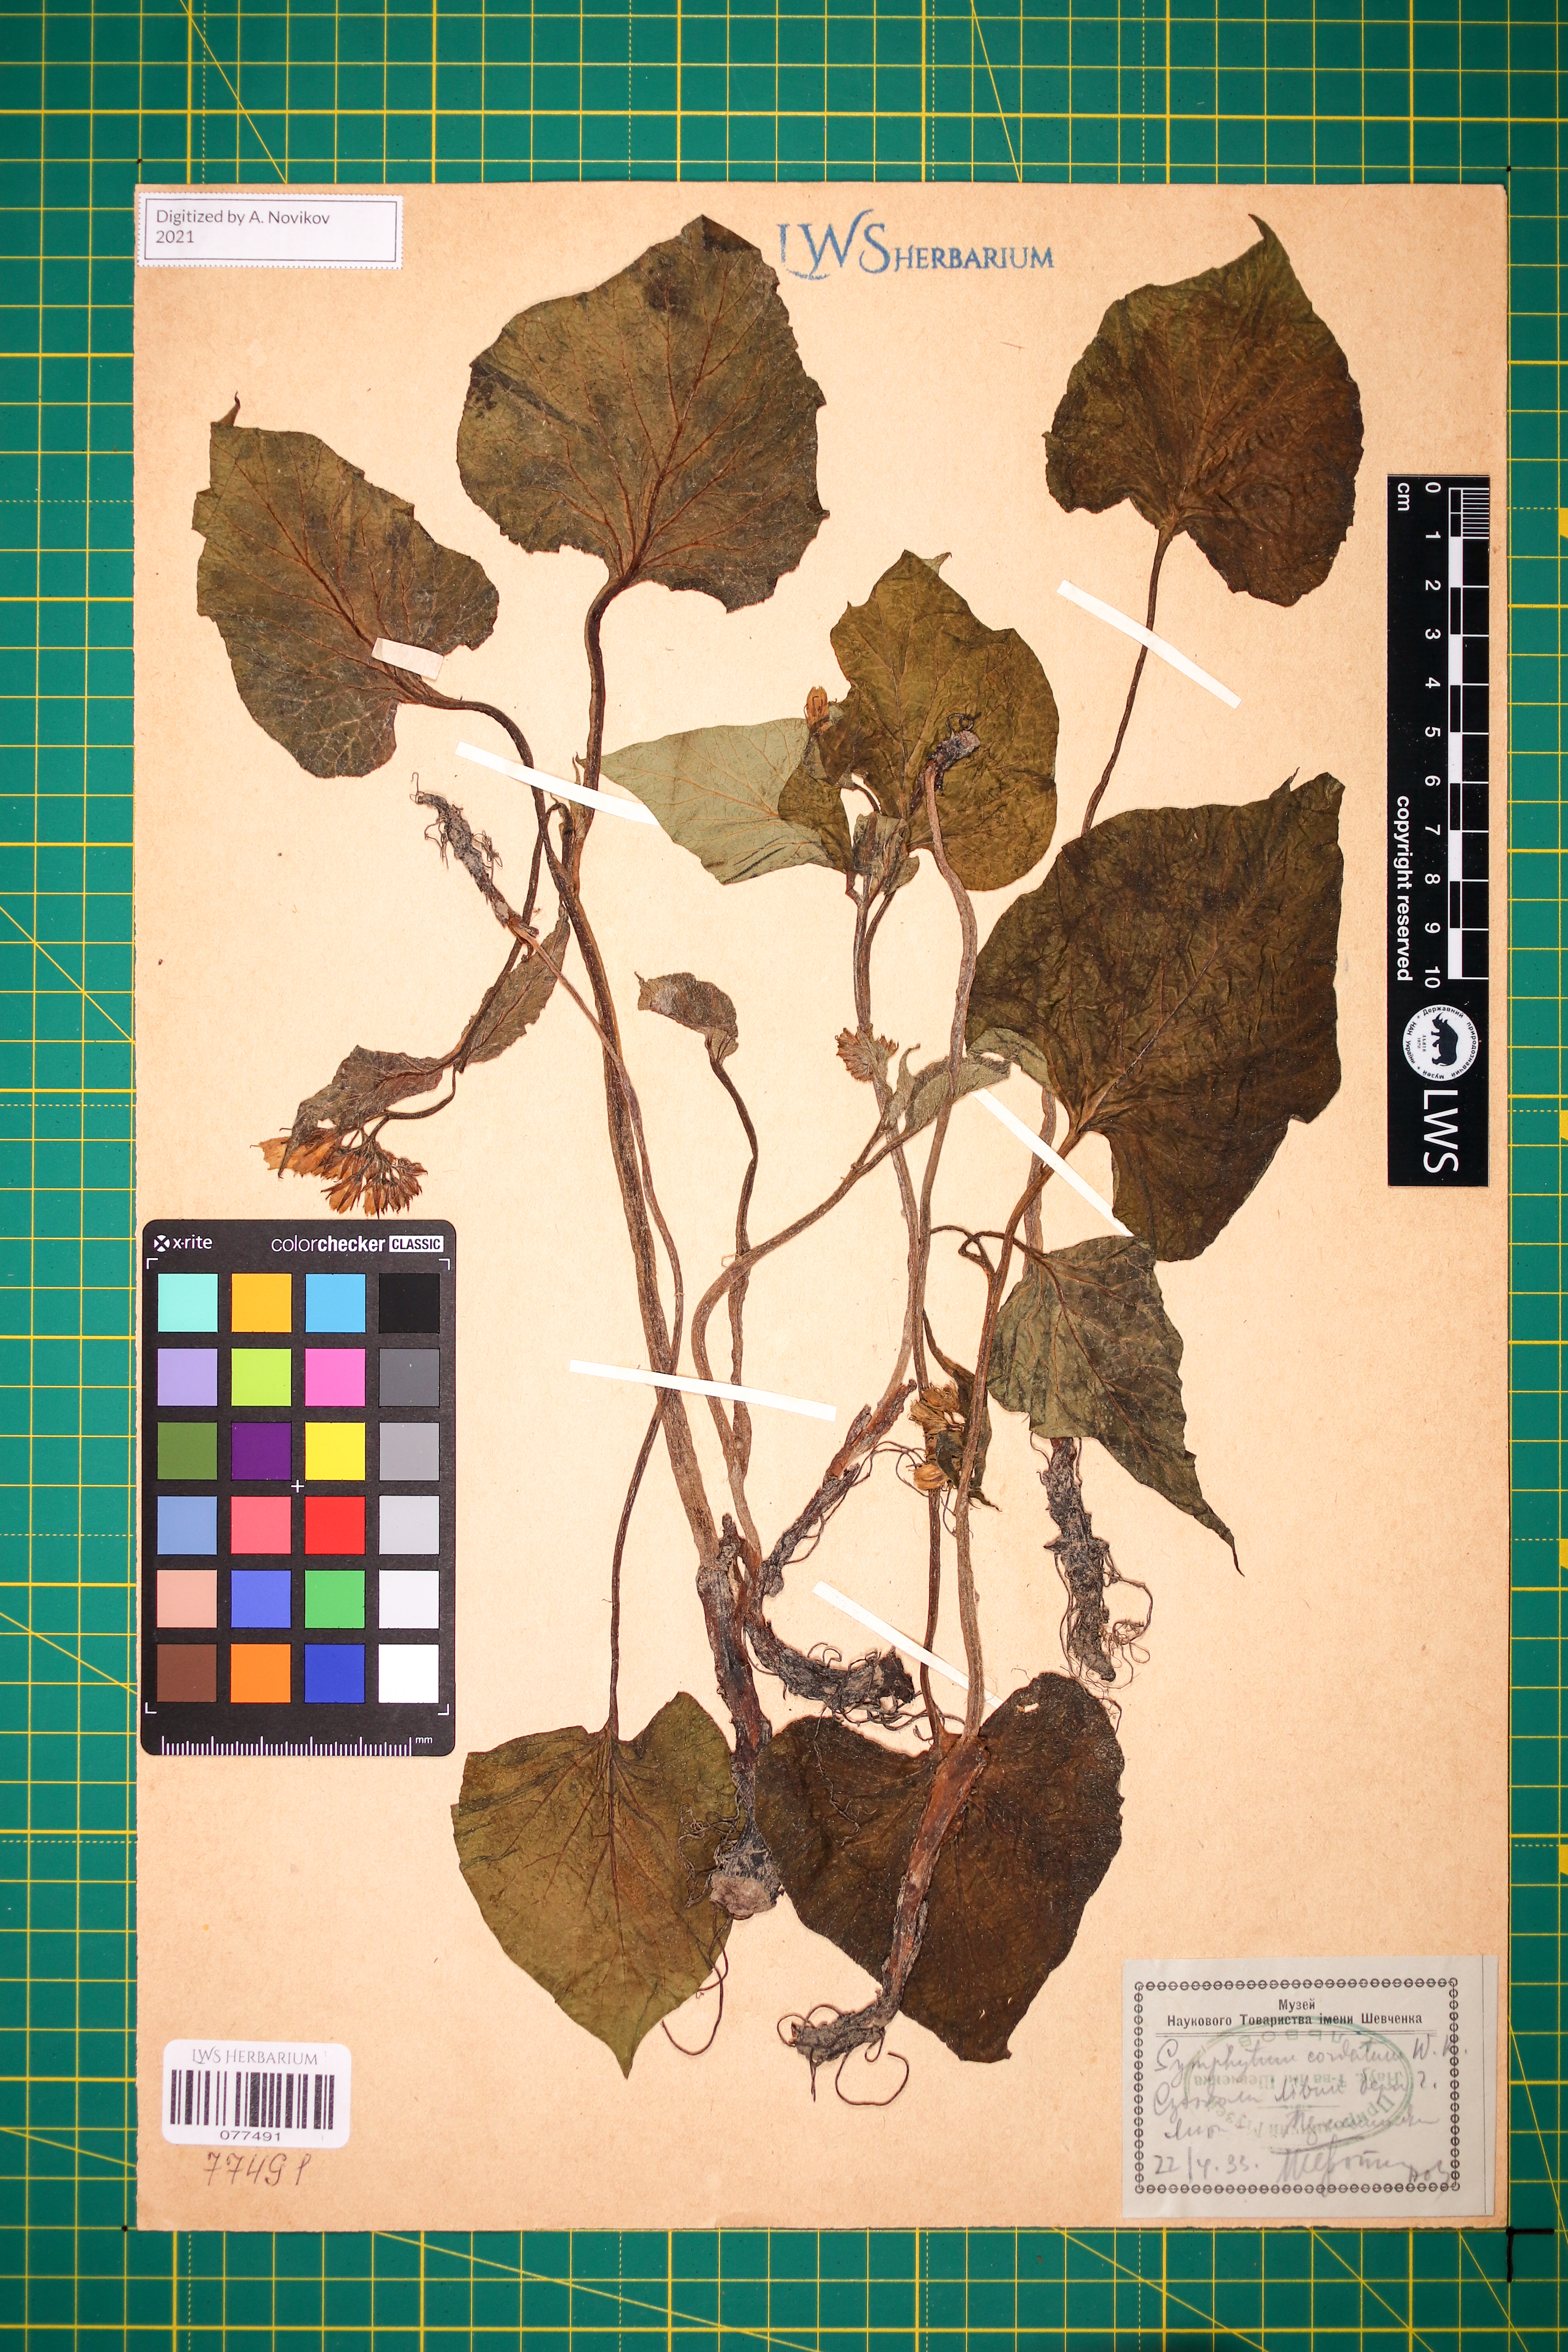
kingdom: Plantae
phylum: Tracheophyta
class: Magnoliopsida
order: Boraginales
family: Boraginaceae
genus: Symphytum
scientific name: Symphytum cordatum
